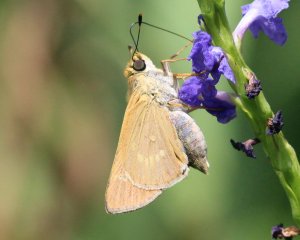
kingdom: Animalia
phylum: Arthropoda
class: Insecta
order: Lepidoptera
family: Hesperiidae
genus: Mellana
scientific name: Mellana eulogius
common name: Common Mellana
